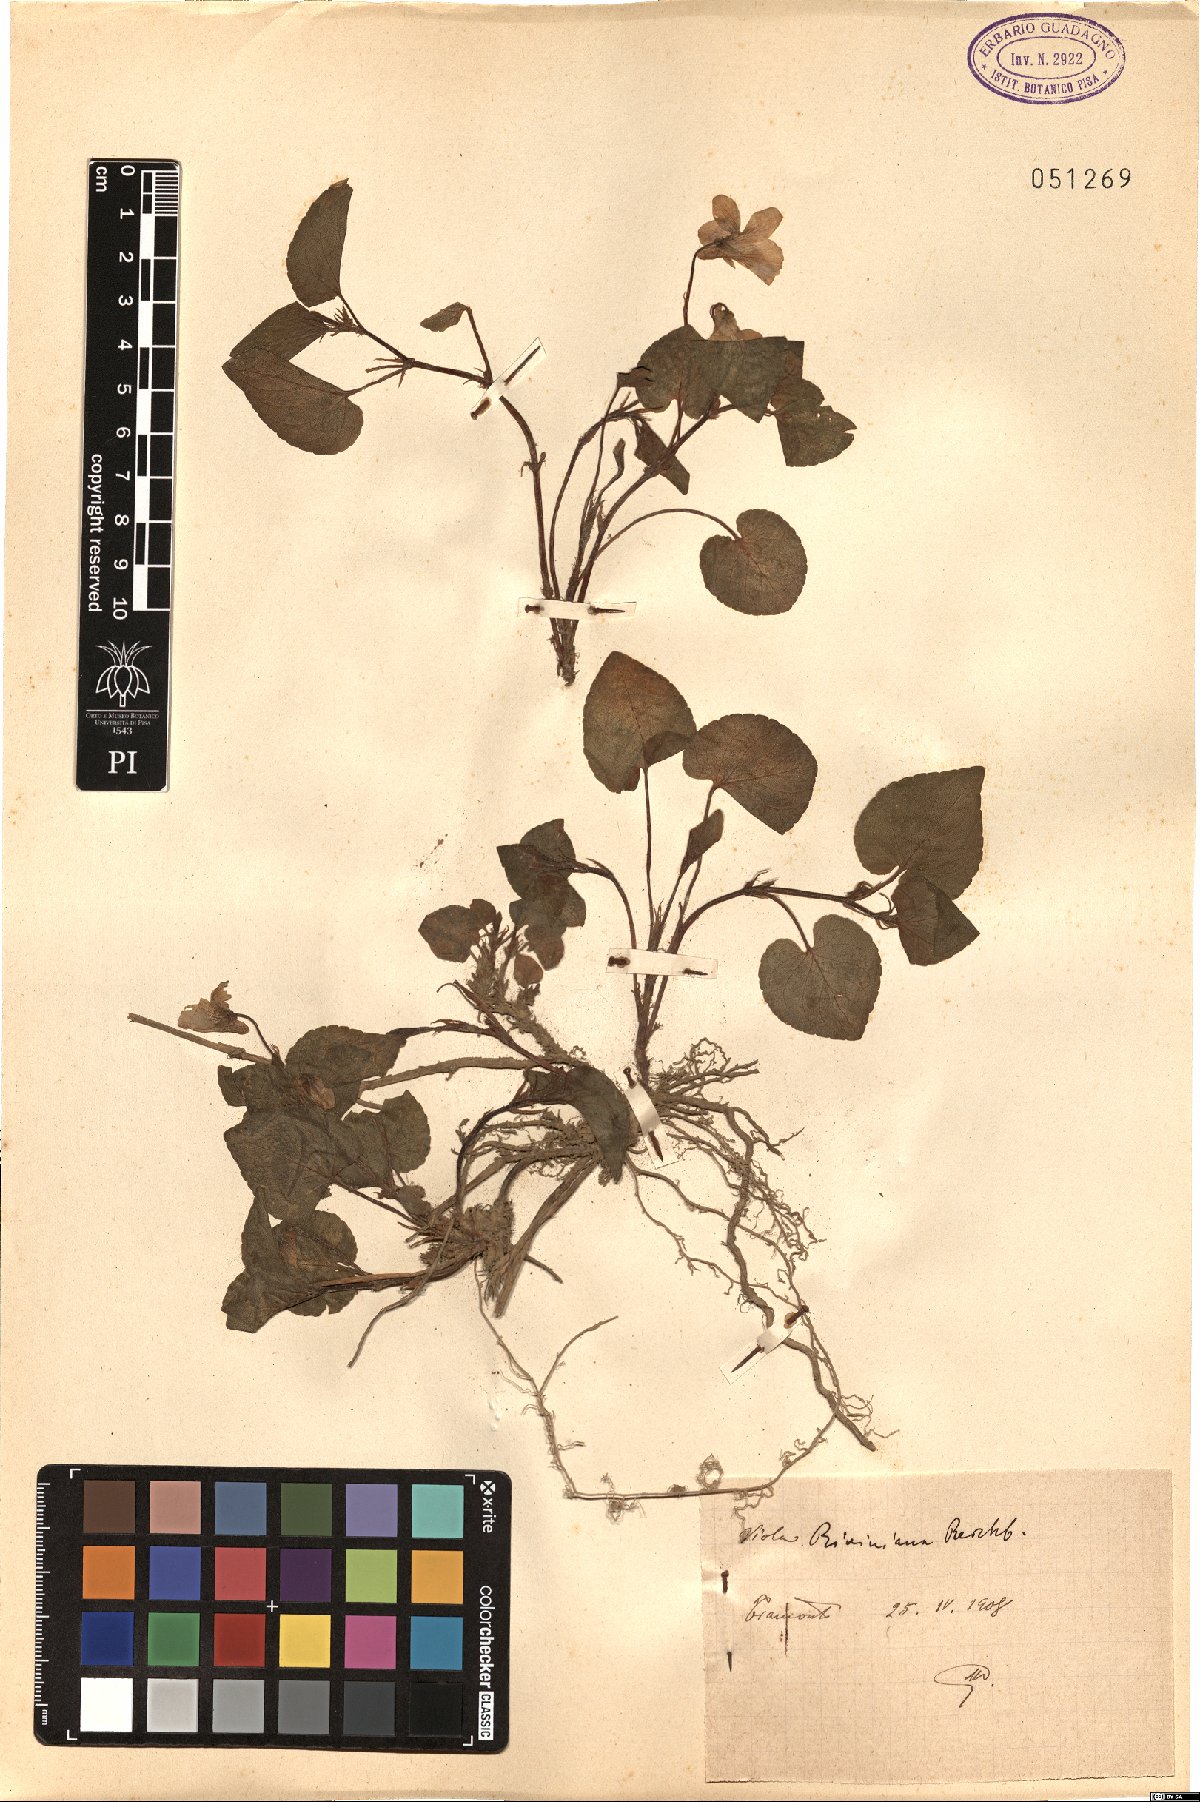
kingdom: Plantae
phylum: Tracheophyta
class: Magnoliopsida
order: Malpighiales
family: Violaceae
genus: Viola
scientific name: Viola riviniana
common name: Common dog-violet
